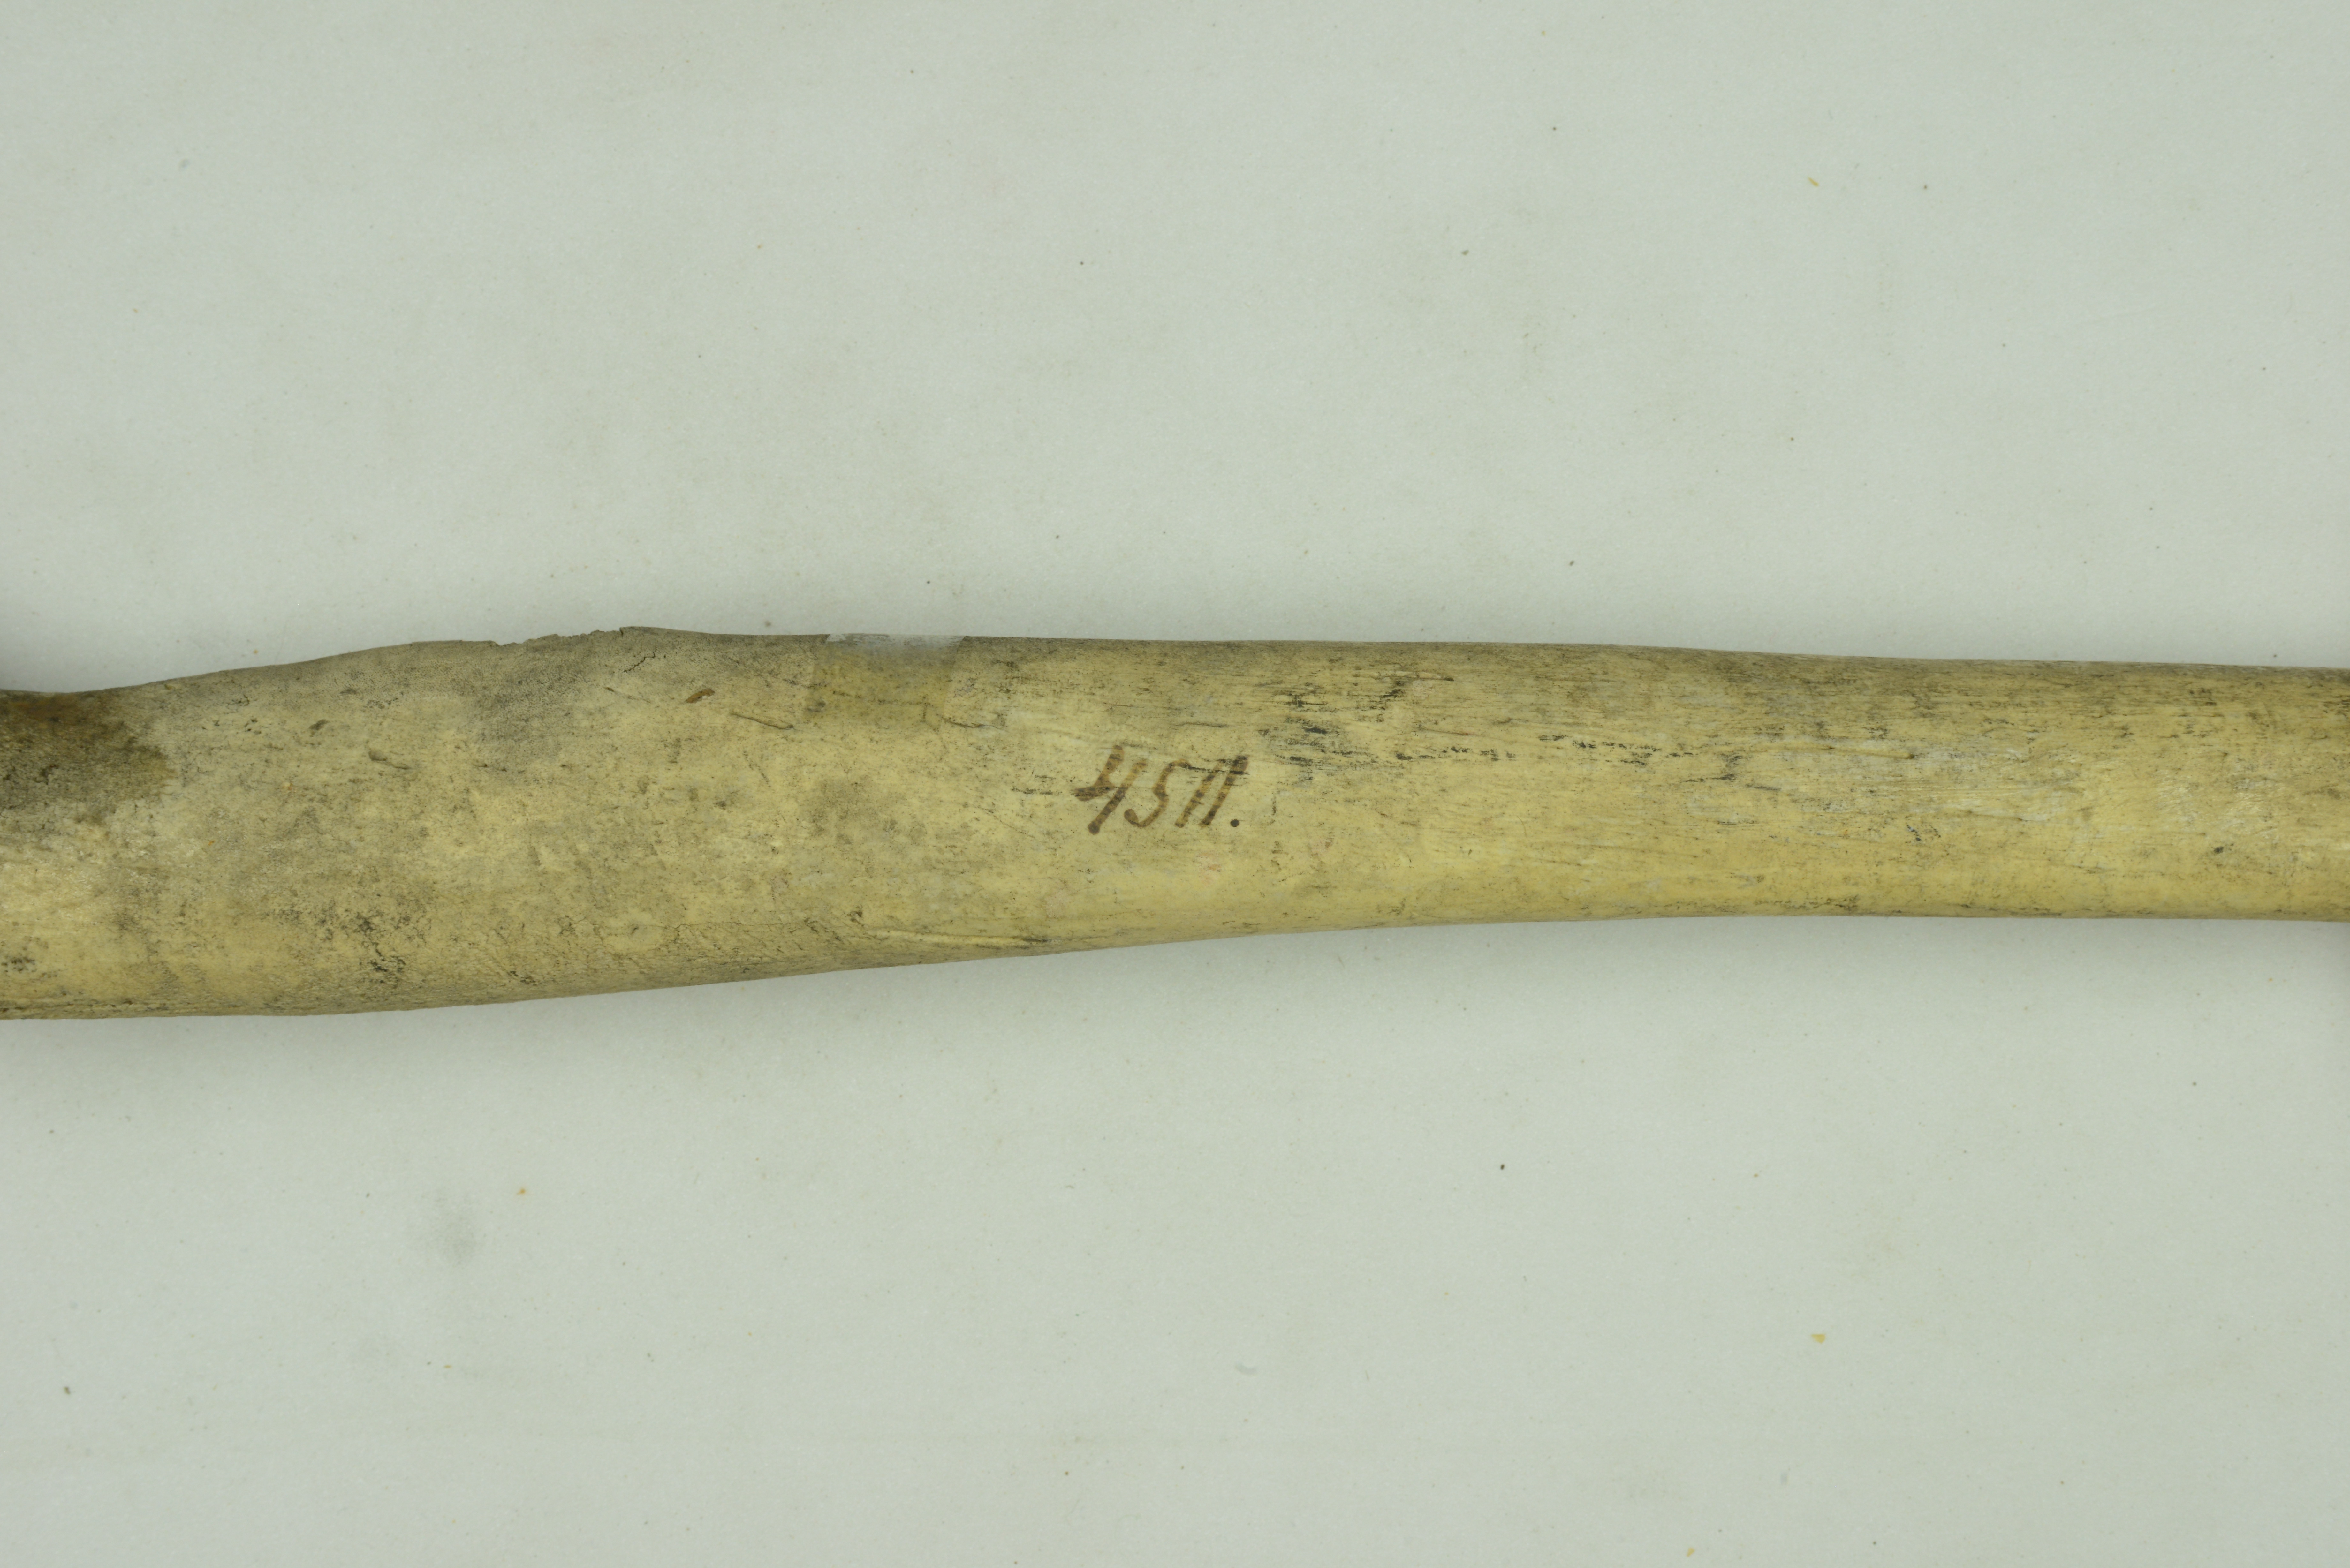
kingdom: Animalia
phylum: Chordata
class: Mammalia
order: Carnivora
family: Odobenidae
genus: Odobenus
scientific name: Odobenus rosmarus
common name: Walrus
